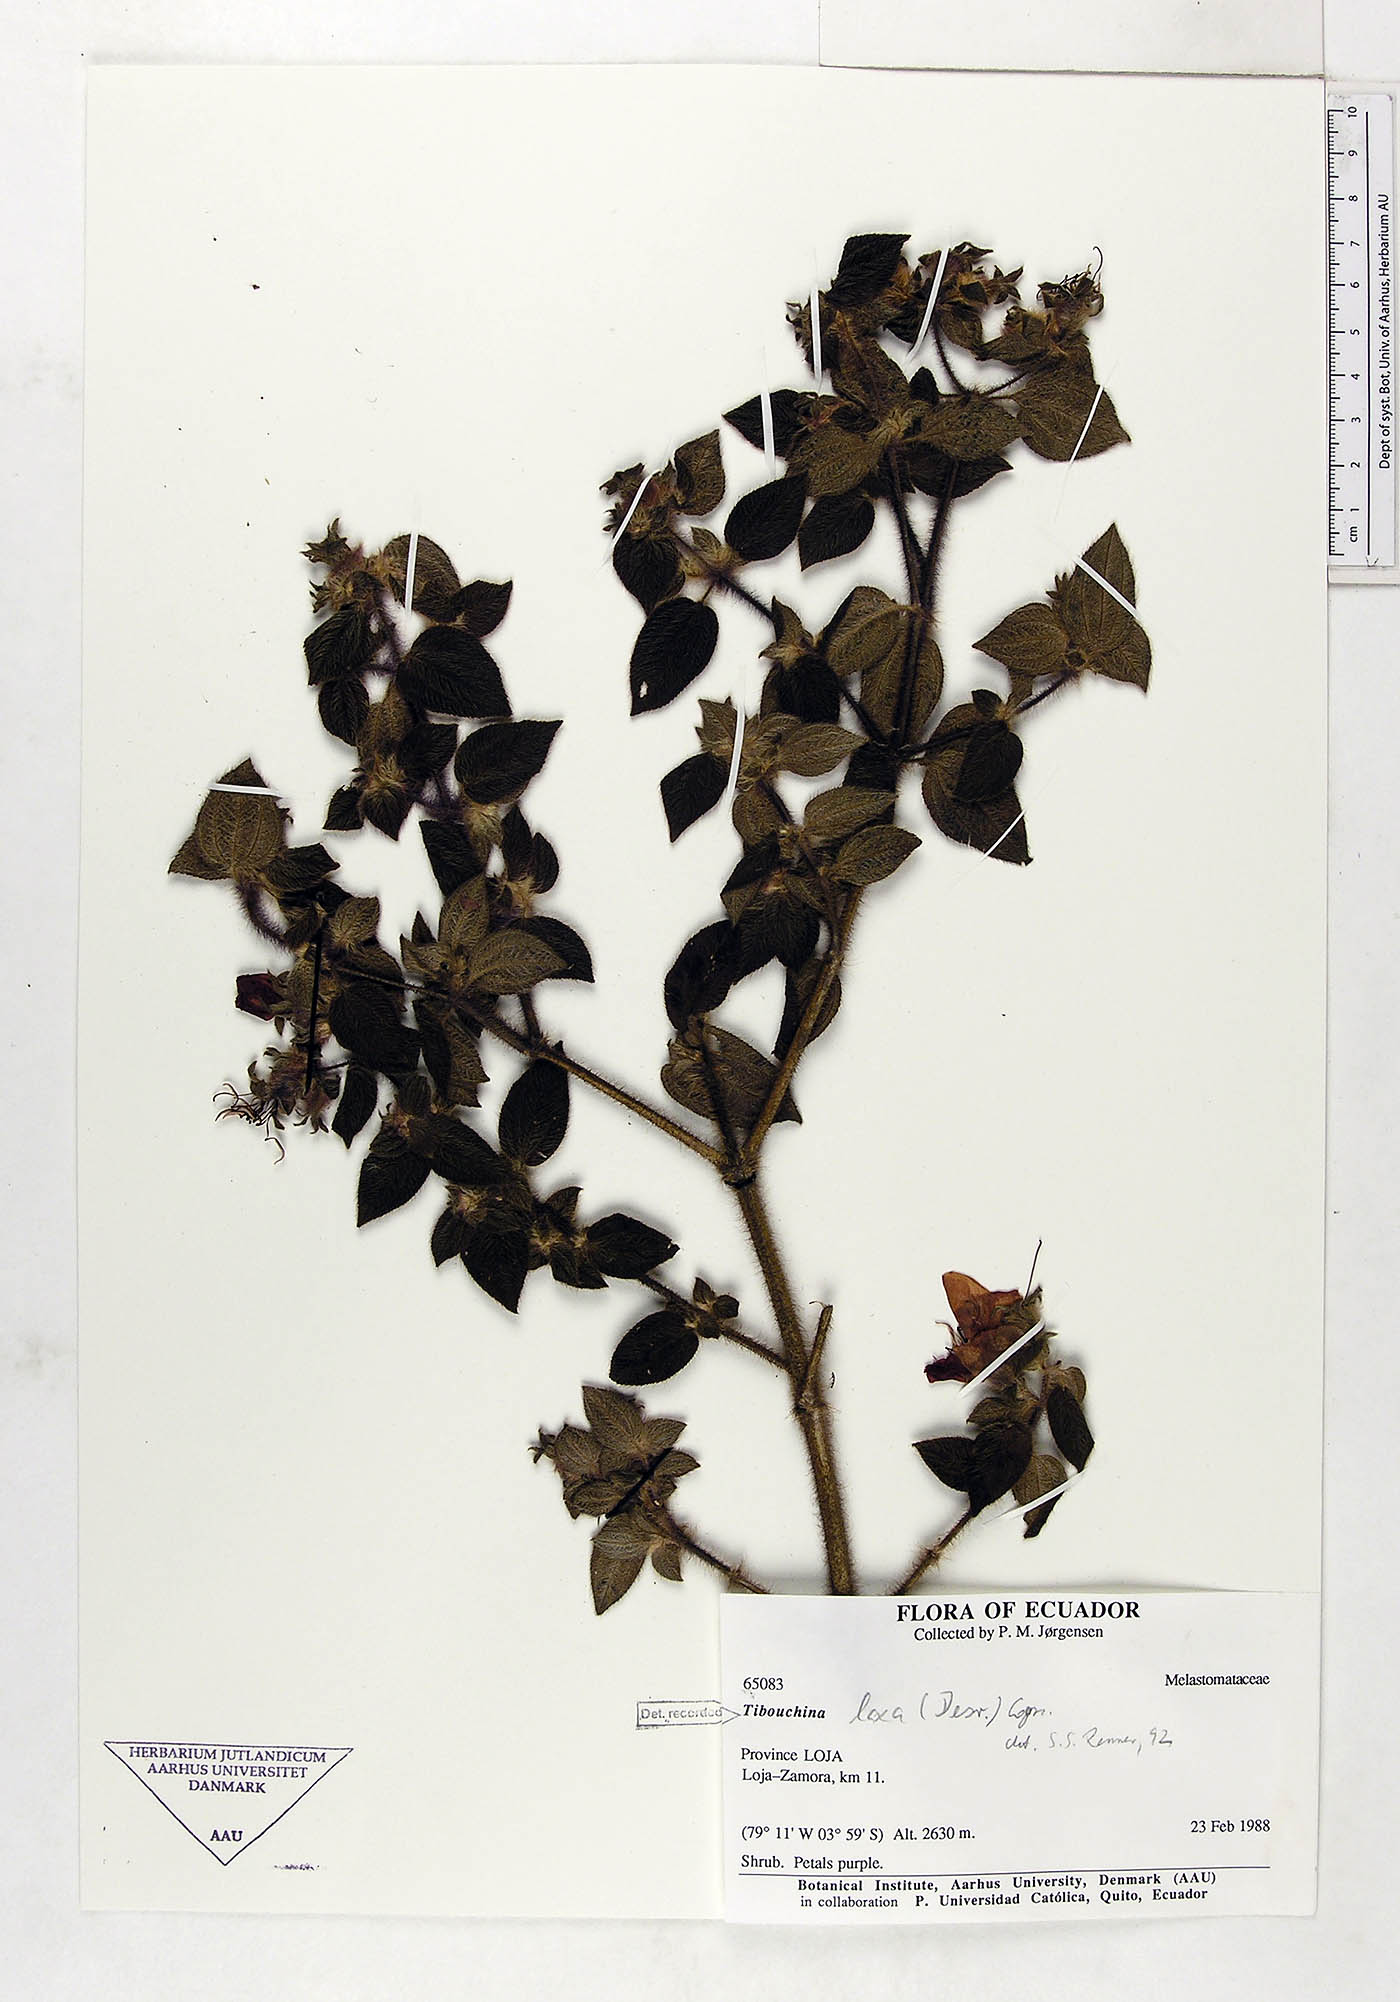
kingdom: Plantae
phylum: Tracheophyta
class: Magnoliopsida
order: Myrtales
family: Melastomataceae
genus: Chaetogastra
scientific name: Chaetogastra laxa
